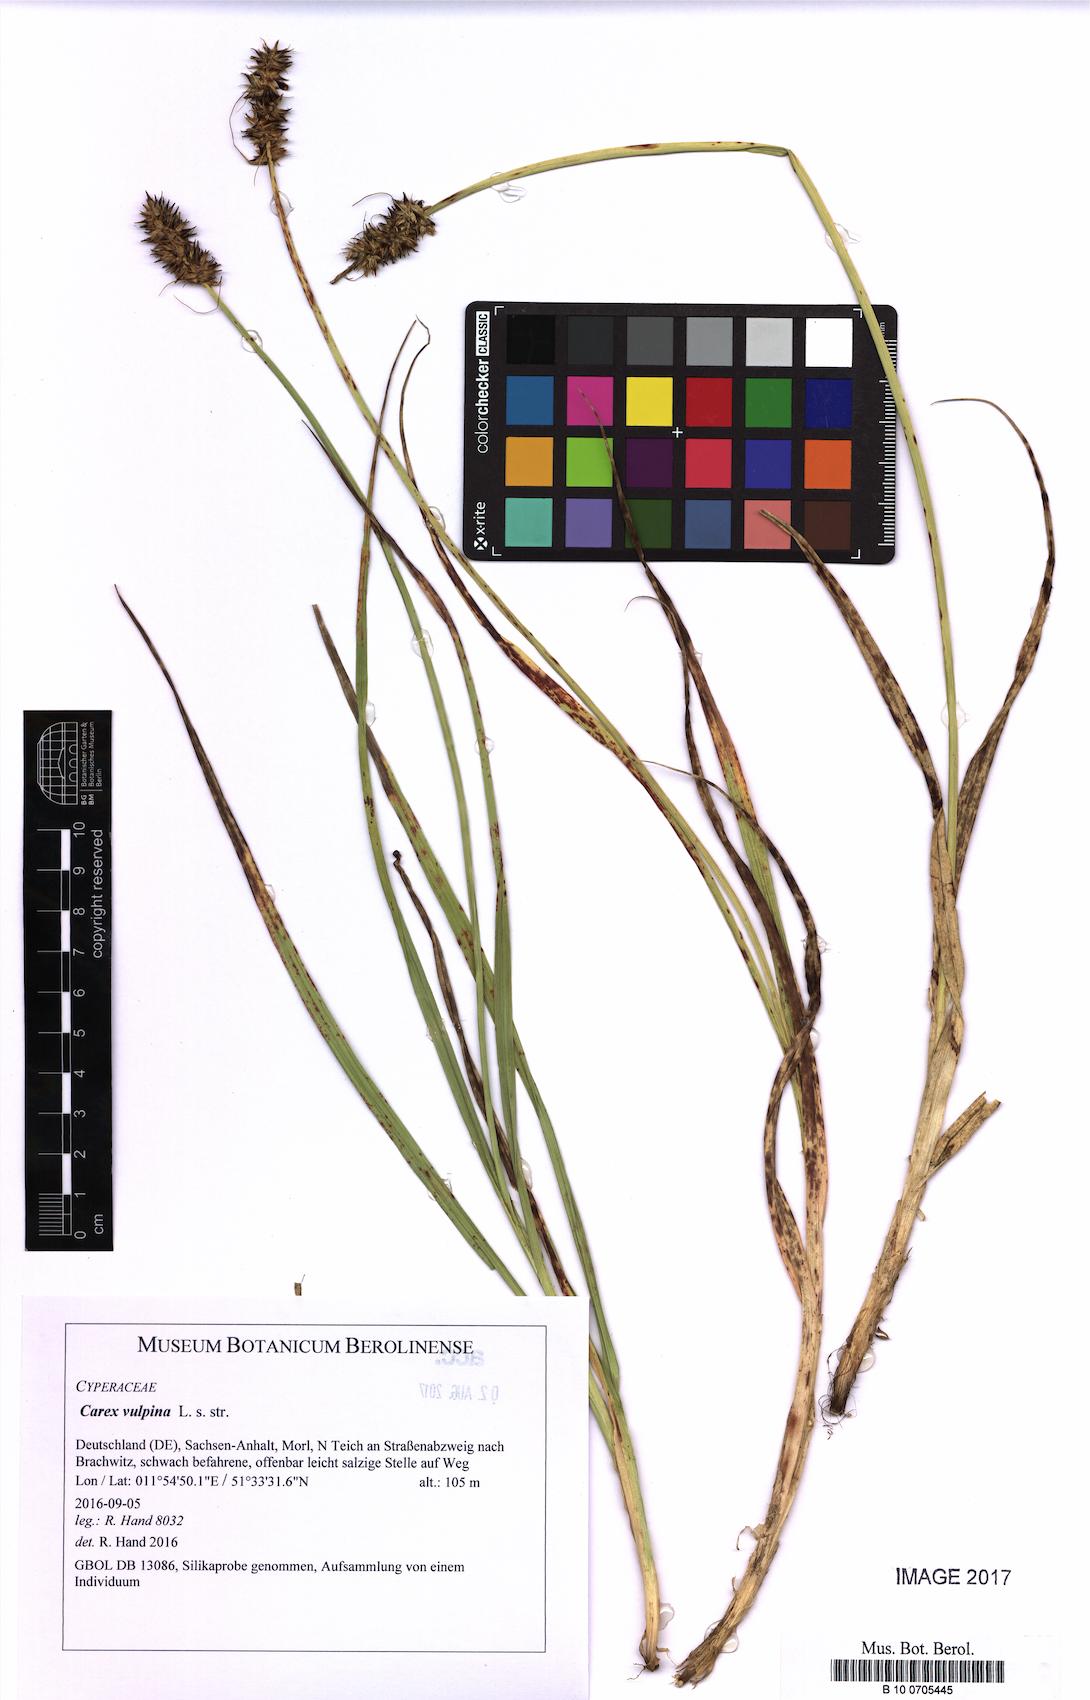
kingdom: Plantae
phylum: Tracheophyta
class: Liliopsida
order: Poales
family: Cyperaceae
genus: Carex
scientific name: Carex vulpina
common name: True fox-sedge
